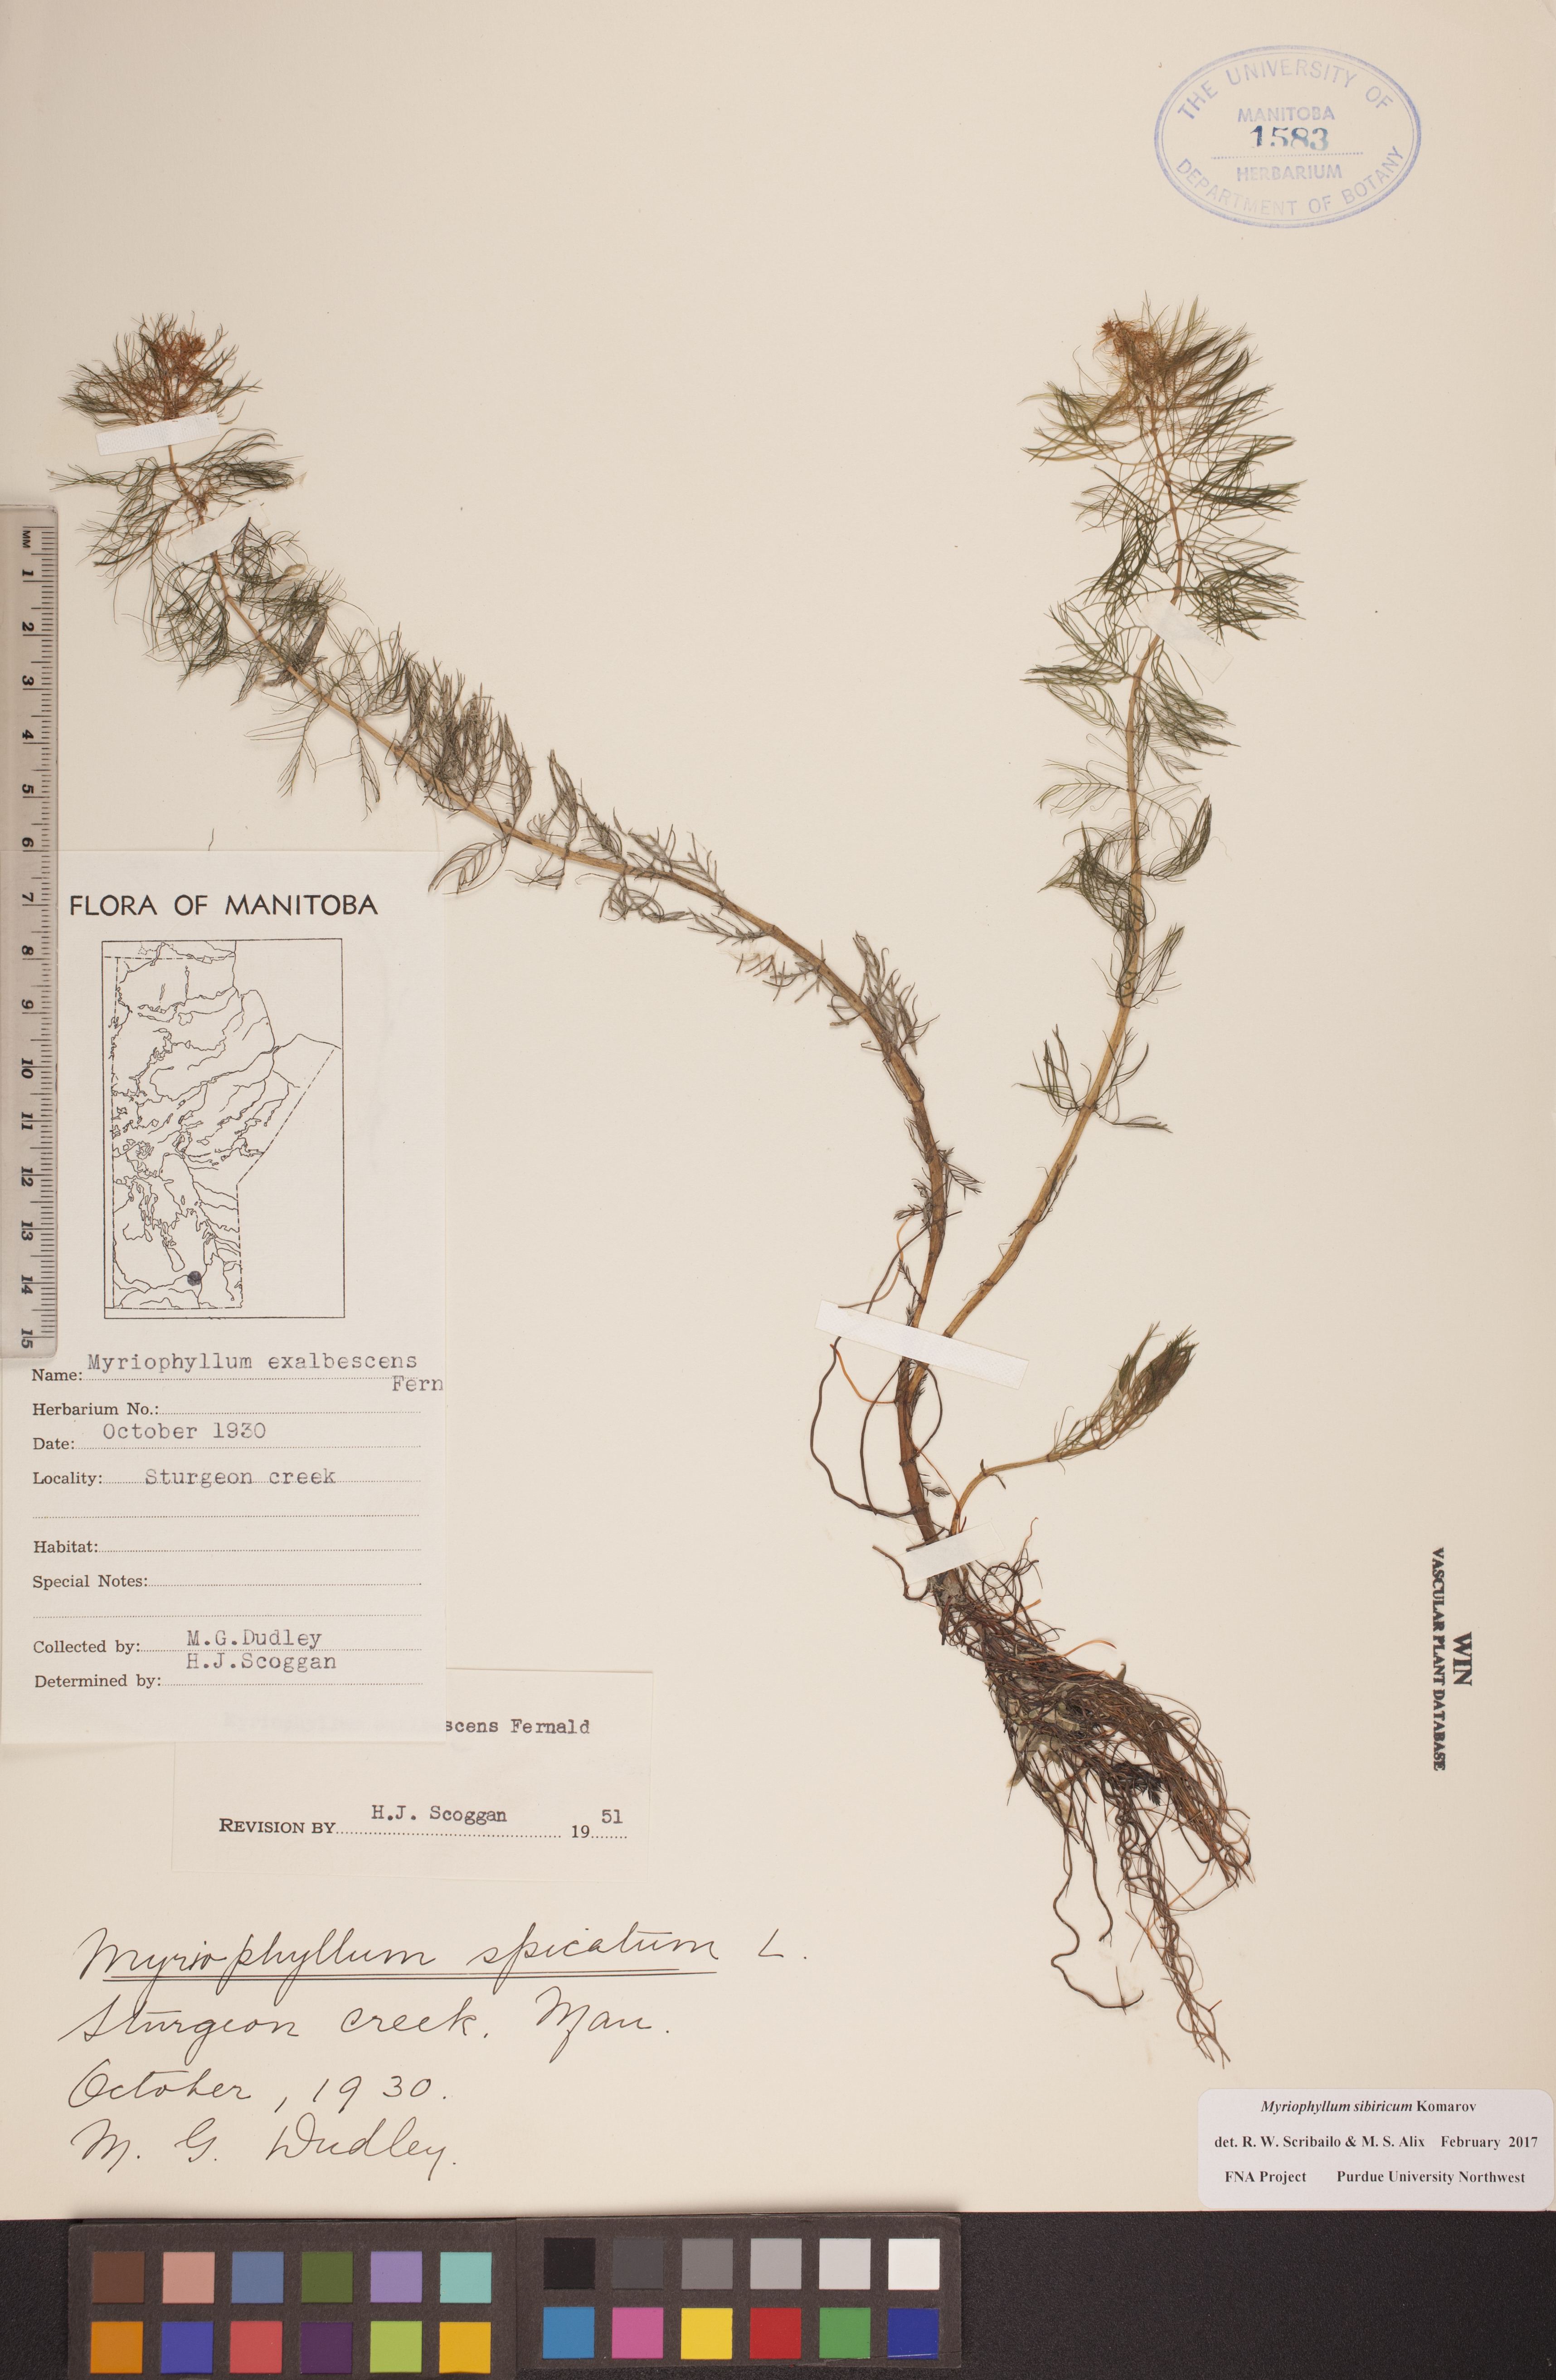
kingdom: Plantae
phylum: Tracheophyta
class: Magnoliopsida
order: Saxifragales
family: Haloragaceae
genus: Myriophyllum
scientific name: Myriophyllum sibiricum
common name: Siberian water-milfoil
